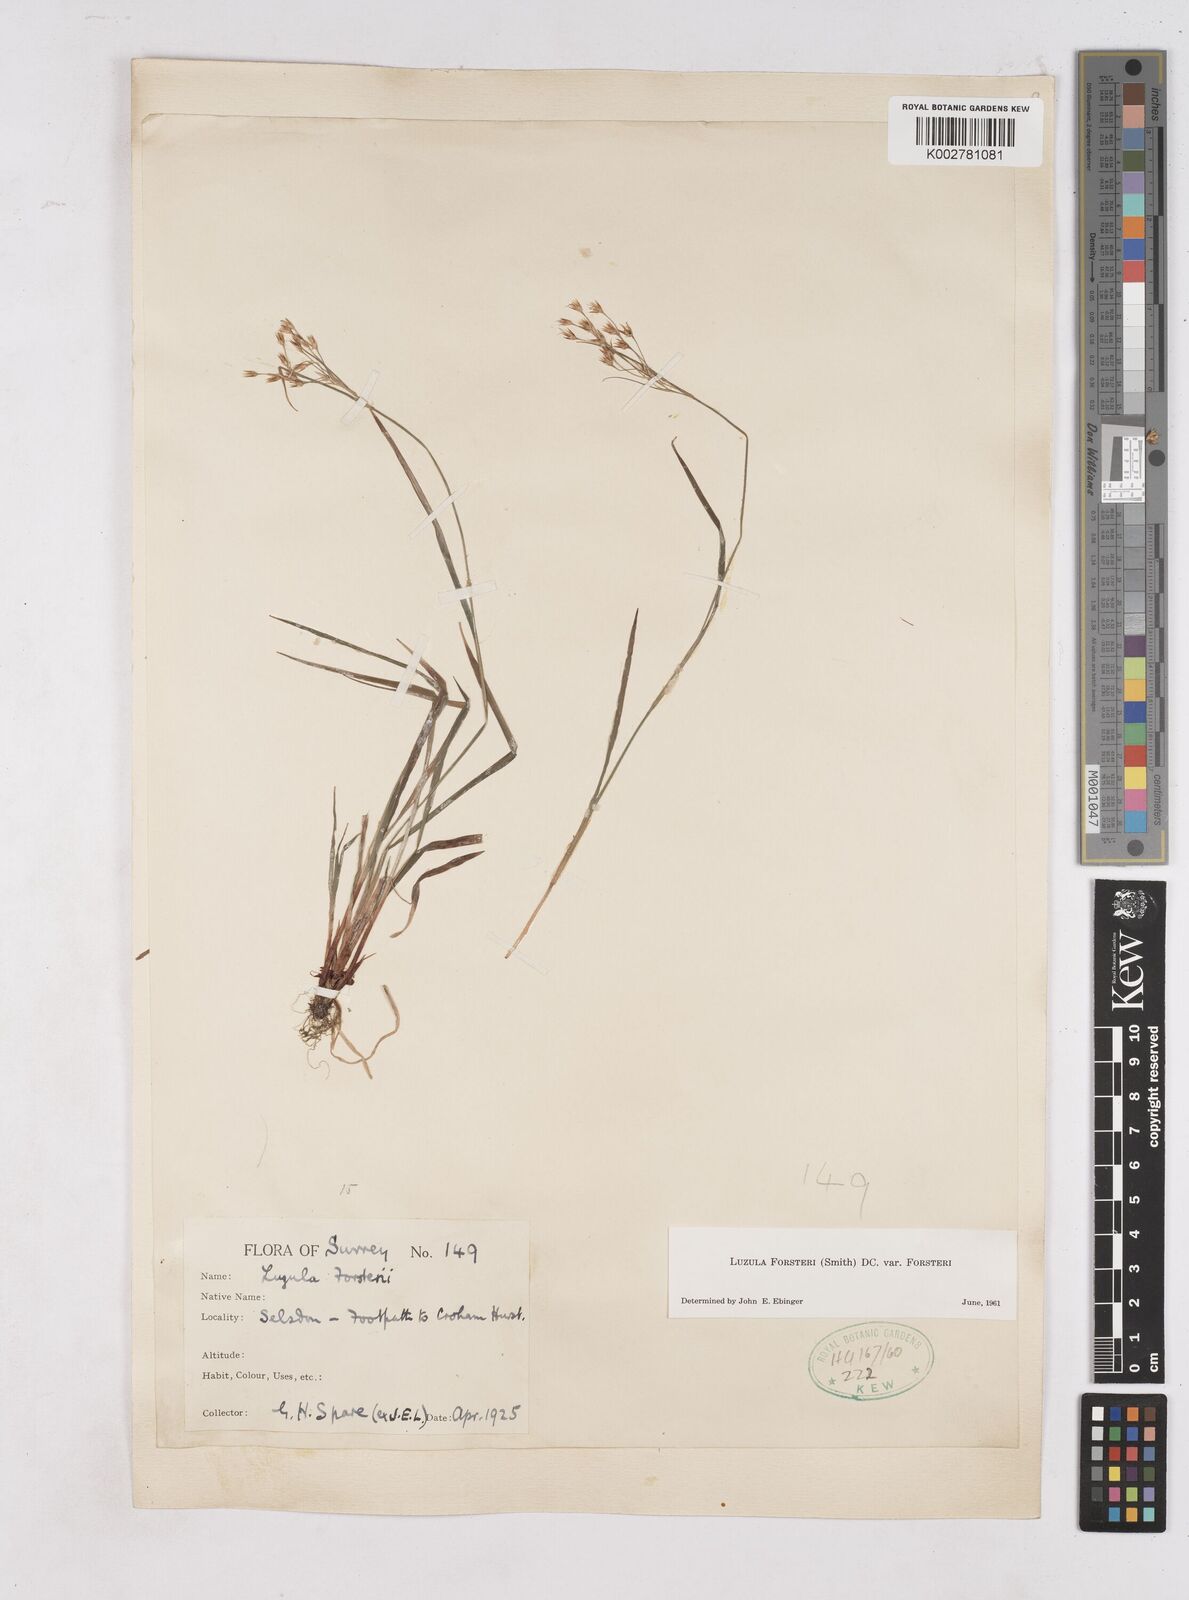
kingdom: Plantae
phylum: Tracheophyta
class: Liliopsida
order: Poales
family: Juncaceae
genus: Luzula
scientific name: Luzula forsteri
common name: Southern wood-rush
